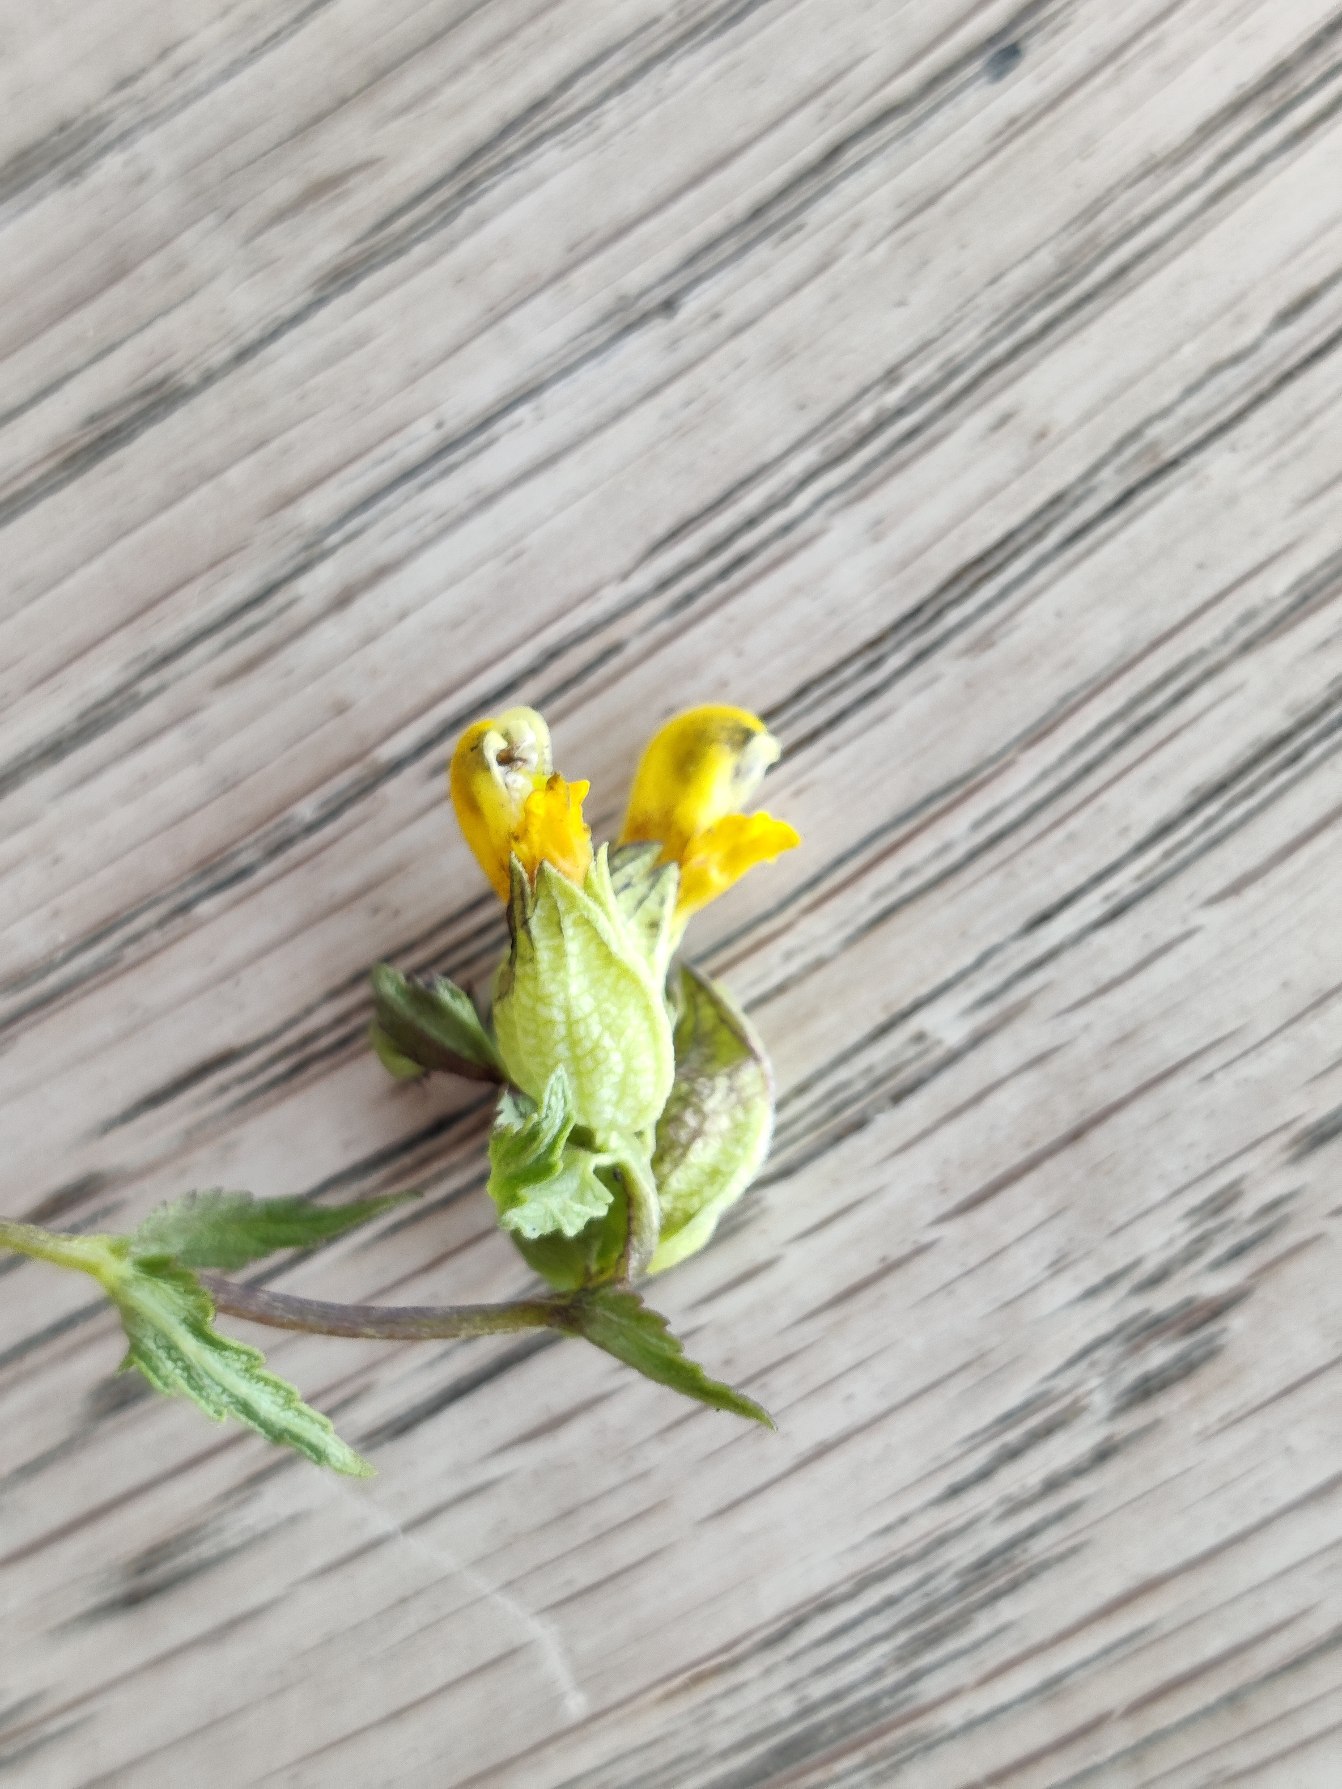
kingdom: Plantae
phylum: Tracheophyta
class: Magnoliopsida
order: Lamiales
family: Orobanchaceae
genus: Rhinanthus
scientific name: Rhinanthus
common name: Stor skjaller
